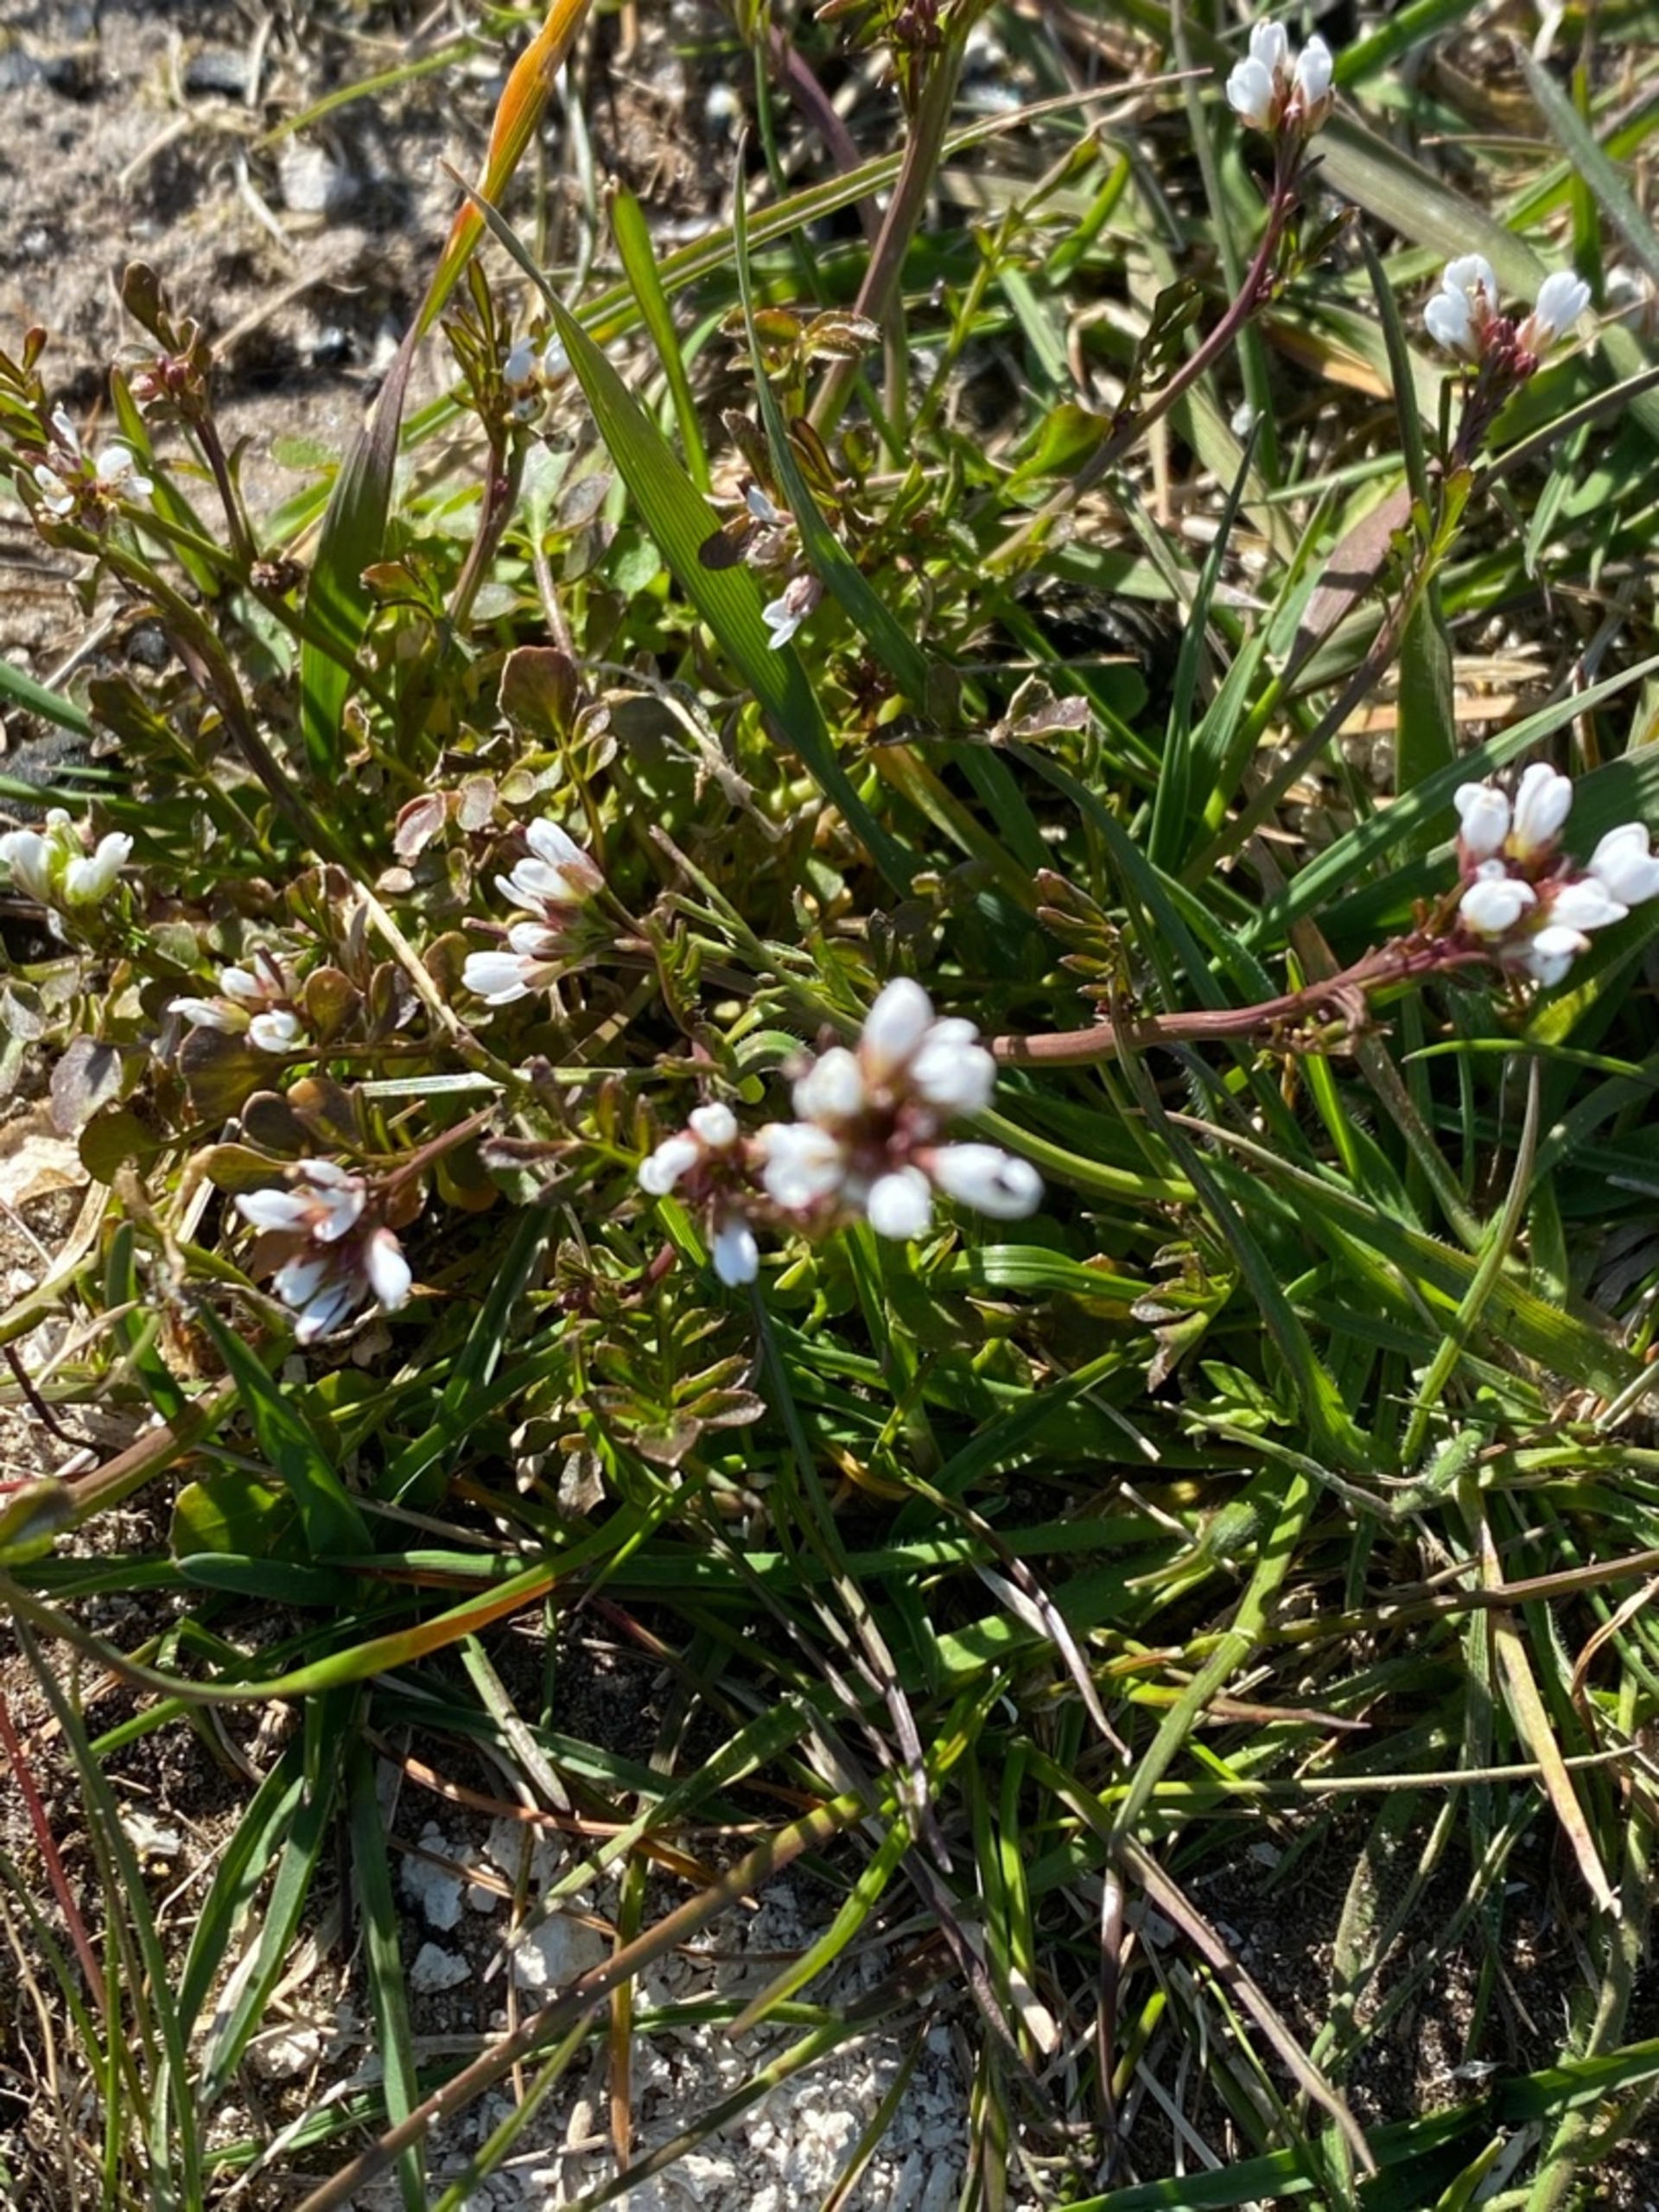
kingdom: Plantae
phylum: Tracheophyta
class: Magnoliopsida
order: Brassicales
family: Brassicaceae
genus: Cardamine
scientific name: Cardamine hirsuta
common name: Roset-springklap
